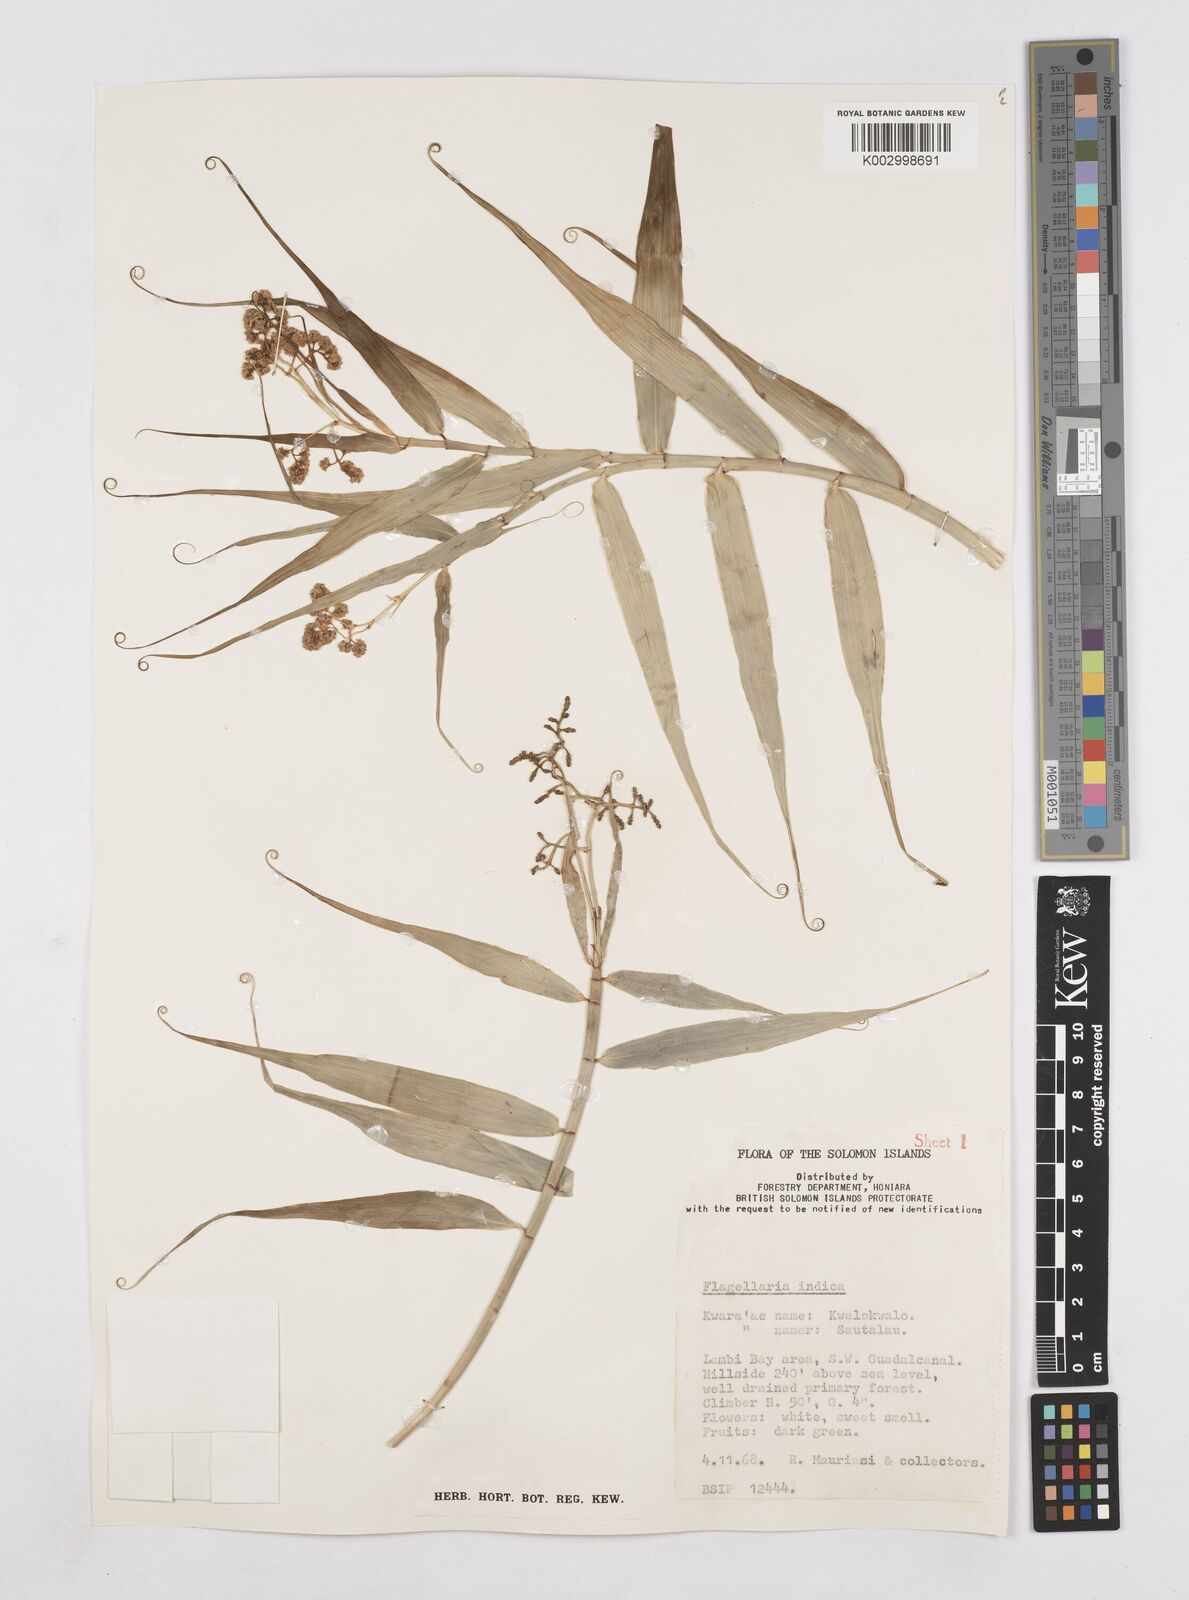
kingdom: Plantae
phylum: Tracheophyta
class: Liliopsida
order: Poales
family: Flagellariaceae
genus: Flagellaria
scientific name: Flagellaria indica
